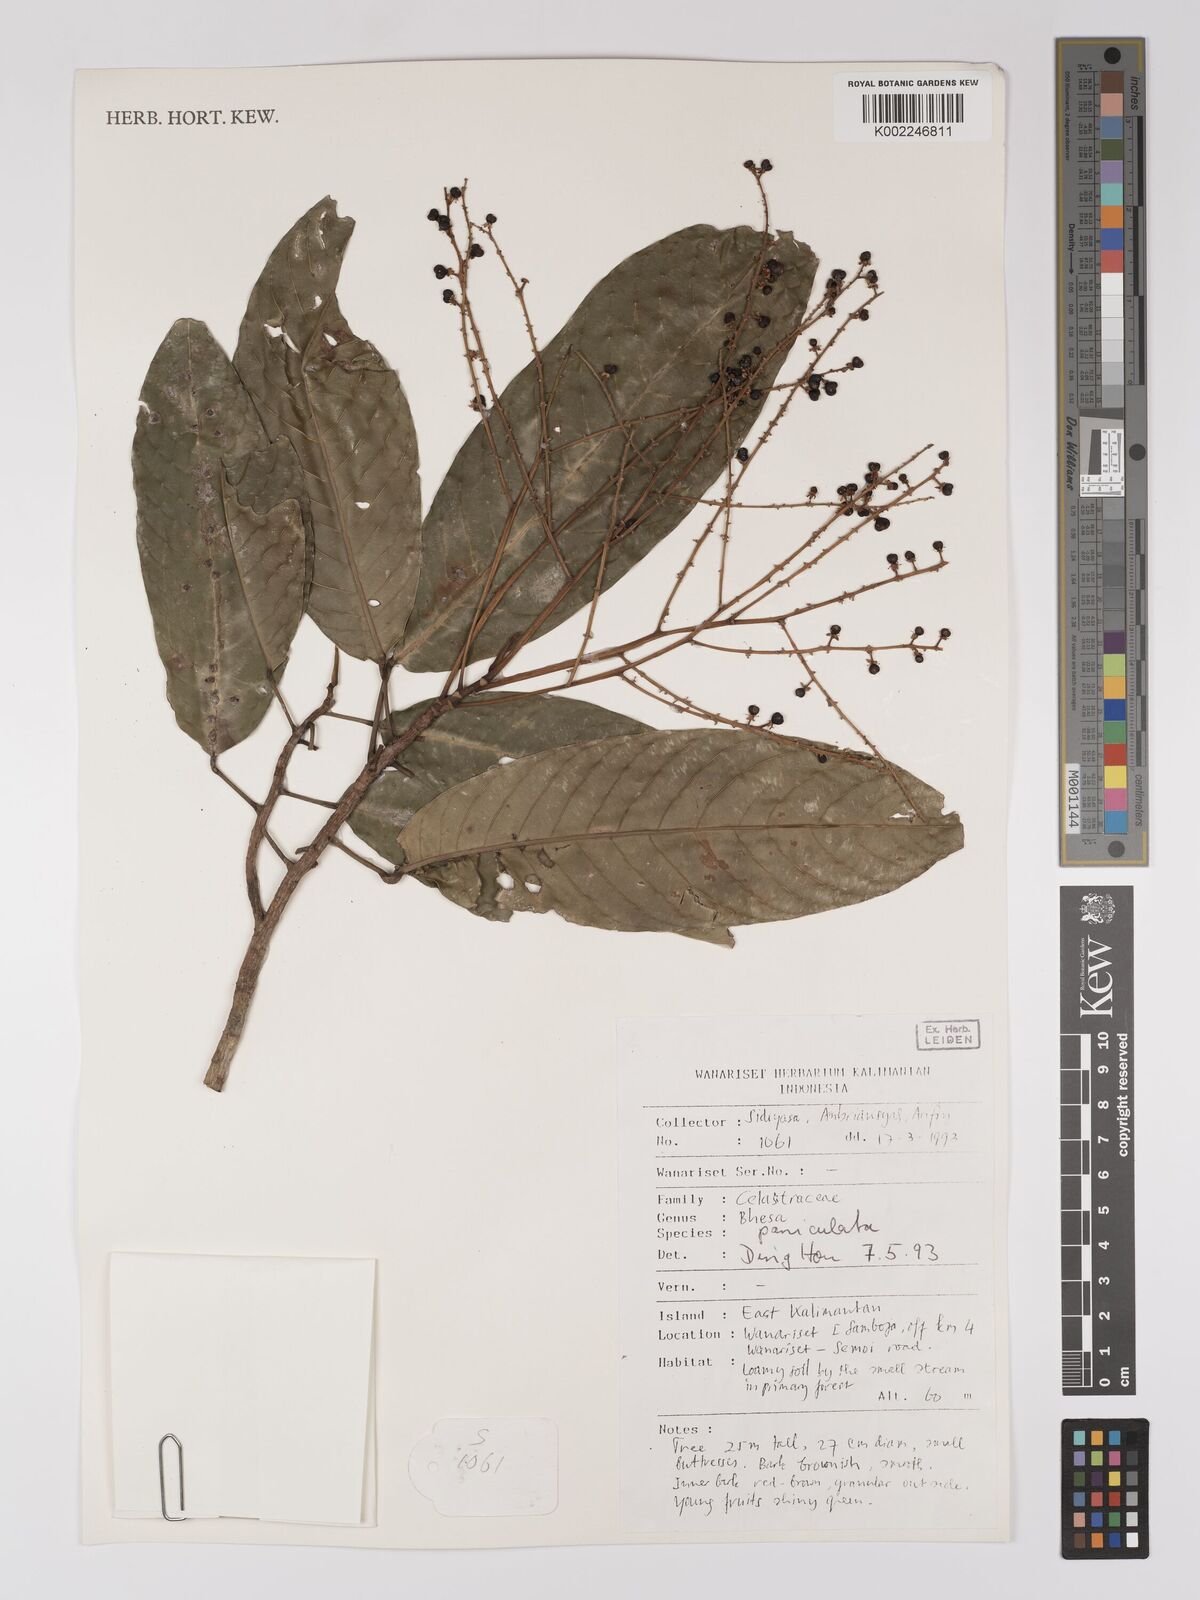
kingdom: Plantae
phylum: Tracheophyta
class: Magnoliopsida
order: Malpighiales
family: Centroplacaceae
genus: Bhesa
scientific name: Bhesa paniculata
